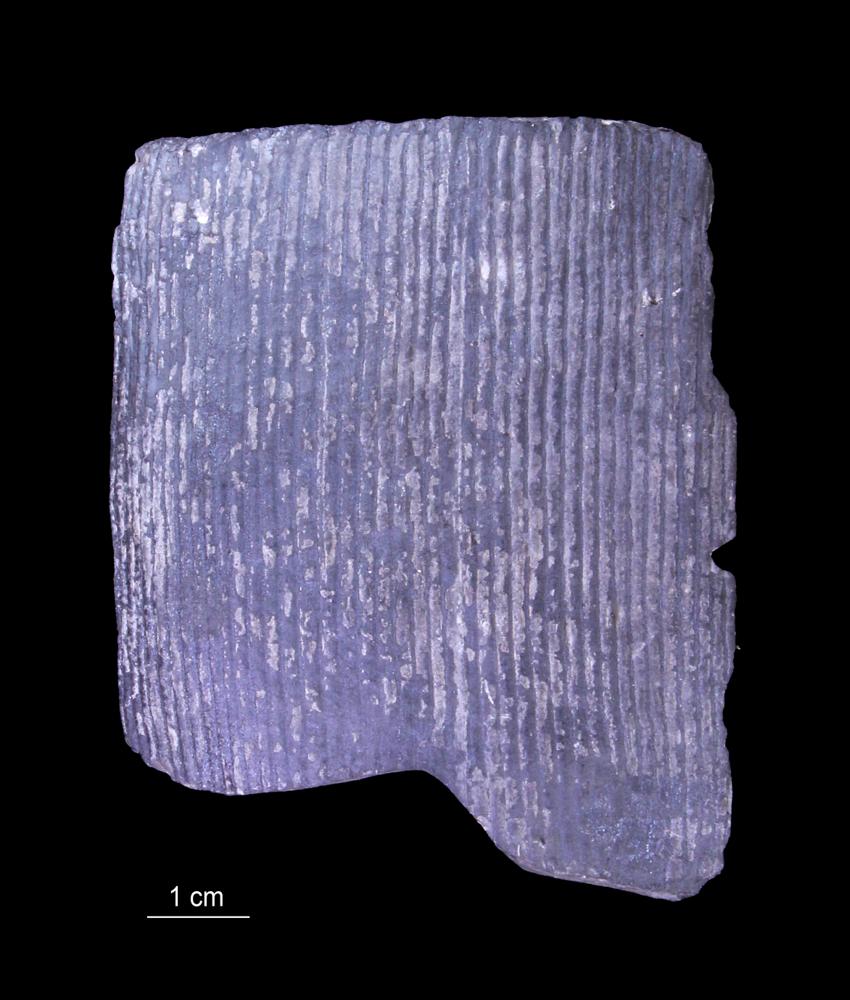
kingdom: Plantae
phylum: Tracheophyta
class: Polypodiopsida
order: Equisetales
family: Calamitaceae
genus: Calamites
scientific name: Calamites
